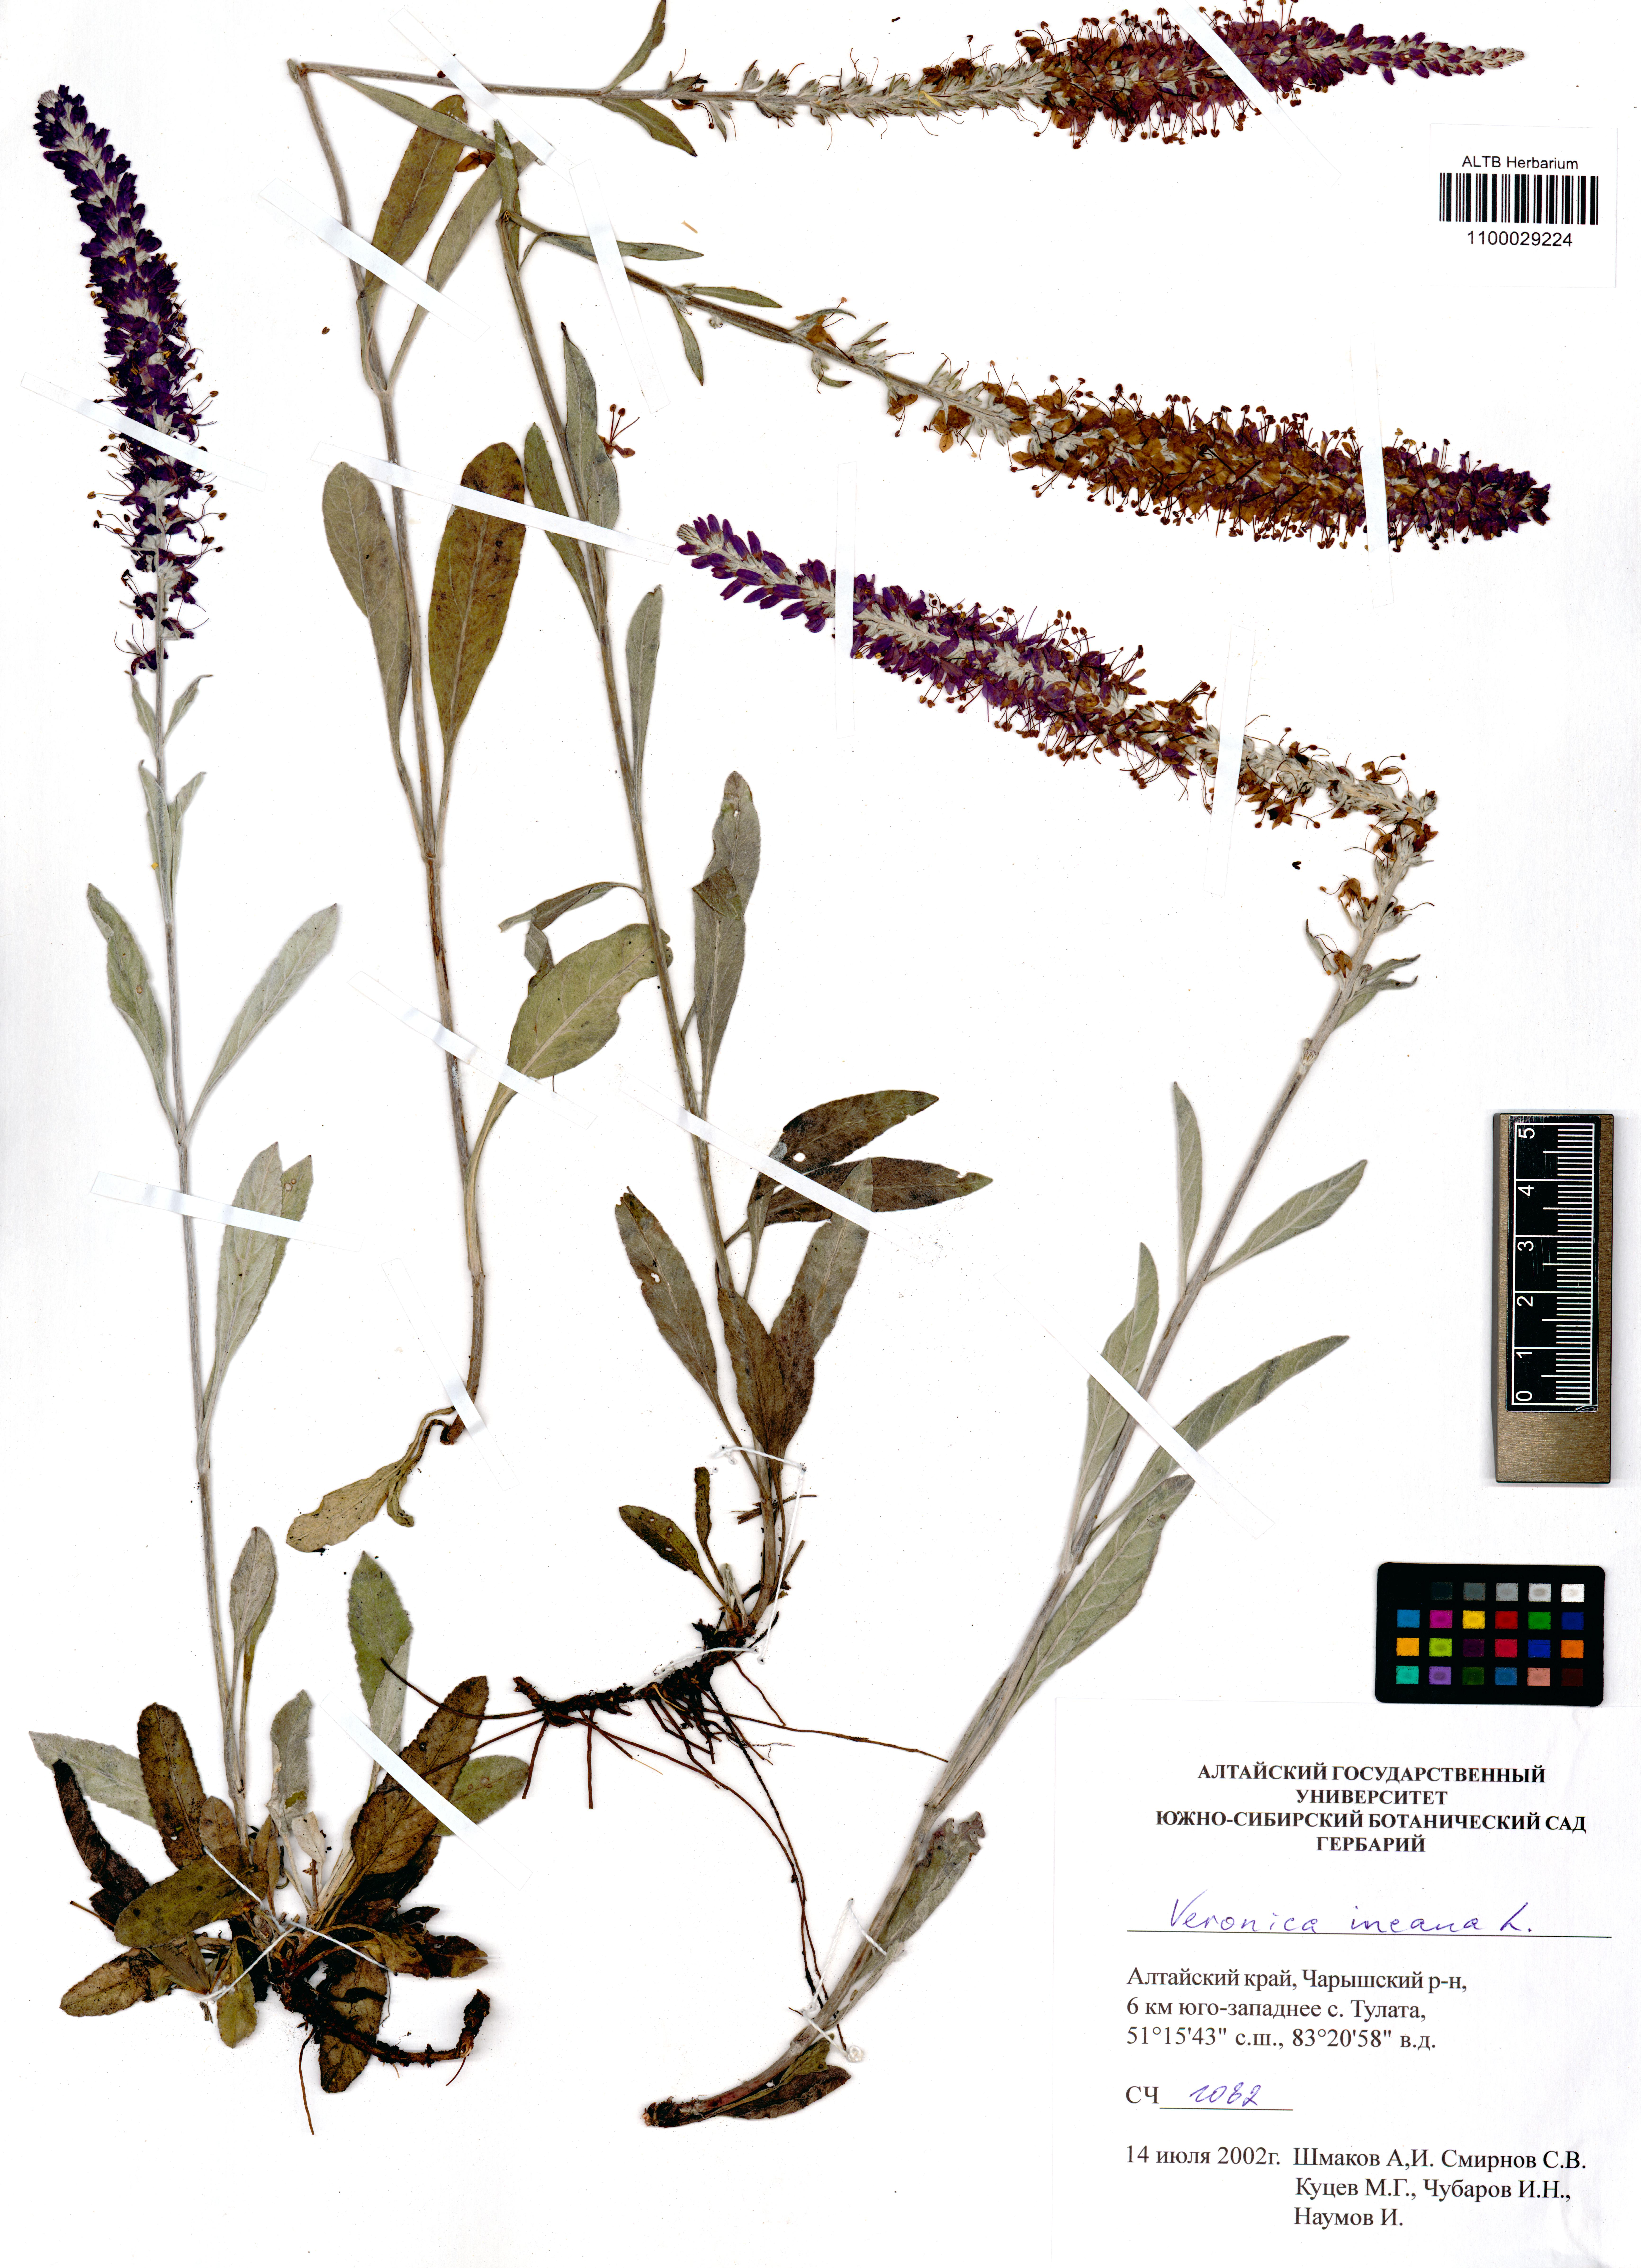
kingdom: Plantae
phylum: Tracheophyta
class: Magnoliopsida
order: Lamiales
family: Plantaginaceae
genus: Veronica
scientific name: Veronica incana
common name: Silver speedwell
